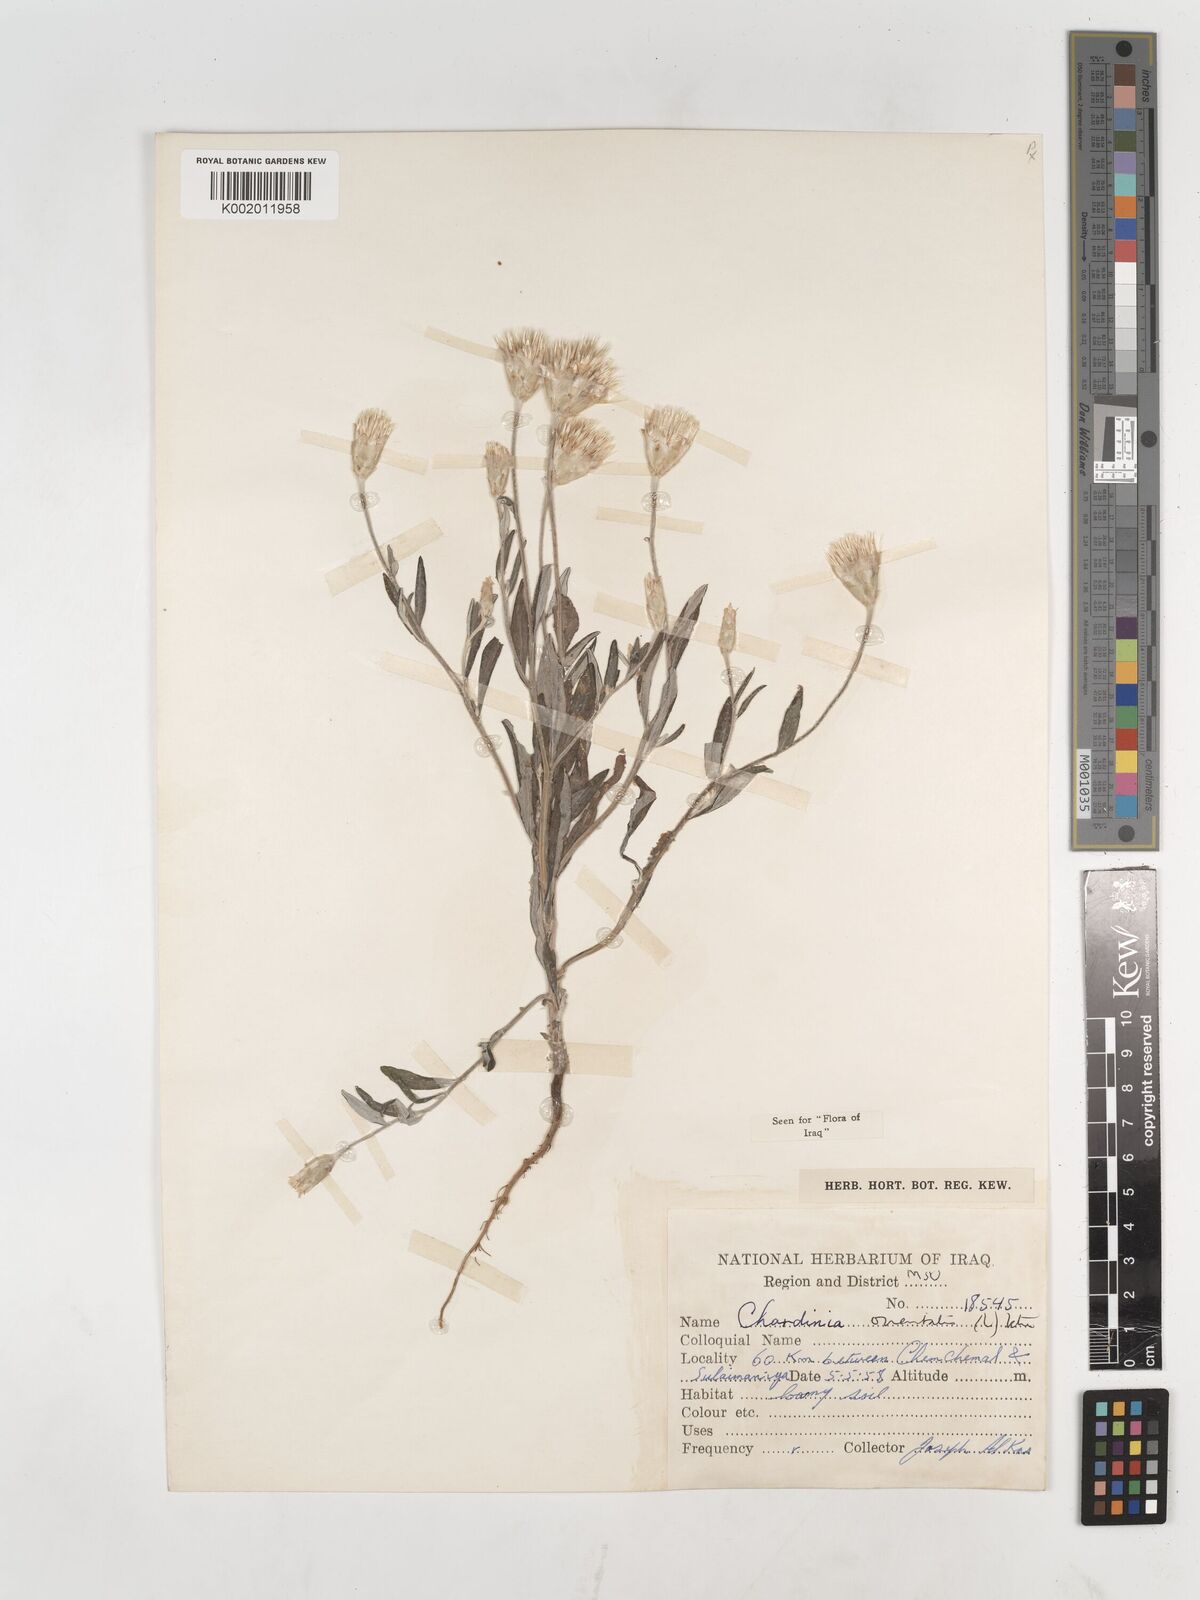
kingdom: Plantae
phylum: Tracheophyta
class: Magnoliopsida
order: Asterales
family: Asteraceae
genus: Chardinia
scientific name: Chardinia orientalis
